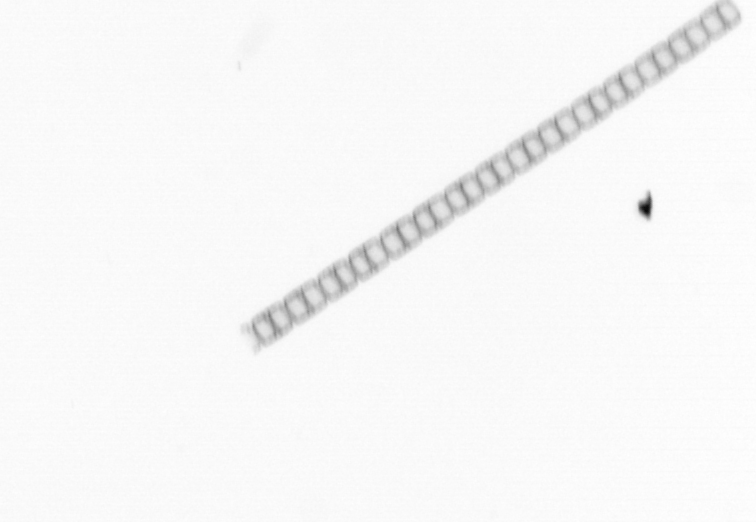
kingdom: Chromista
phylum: Ochrophyta
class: Bacillariophyceae
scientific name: Bacillariophyceae
